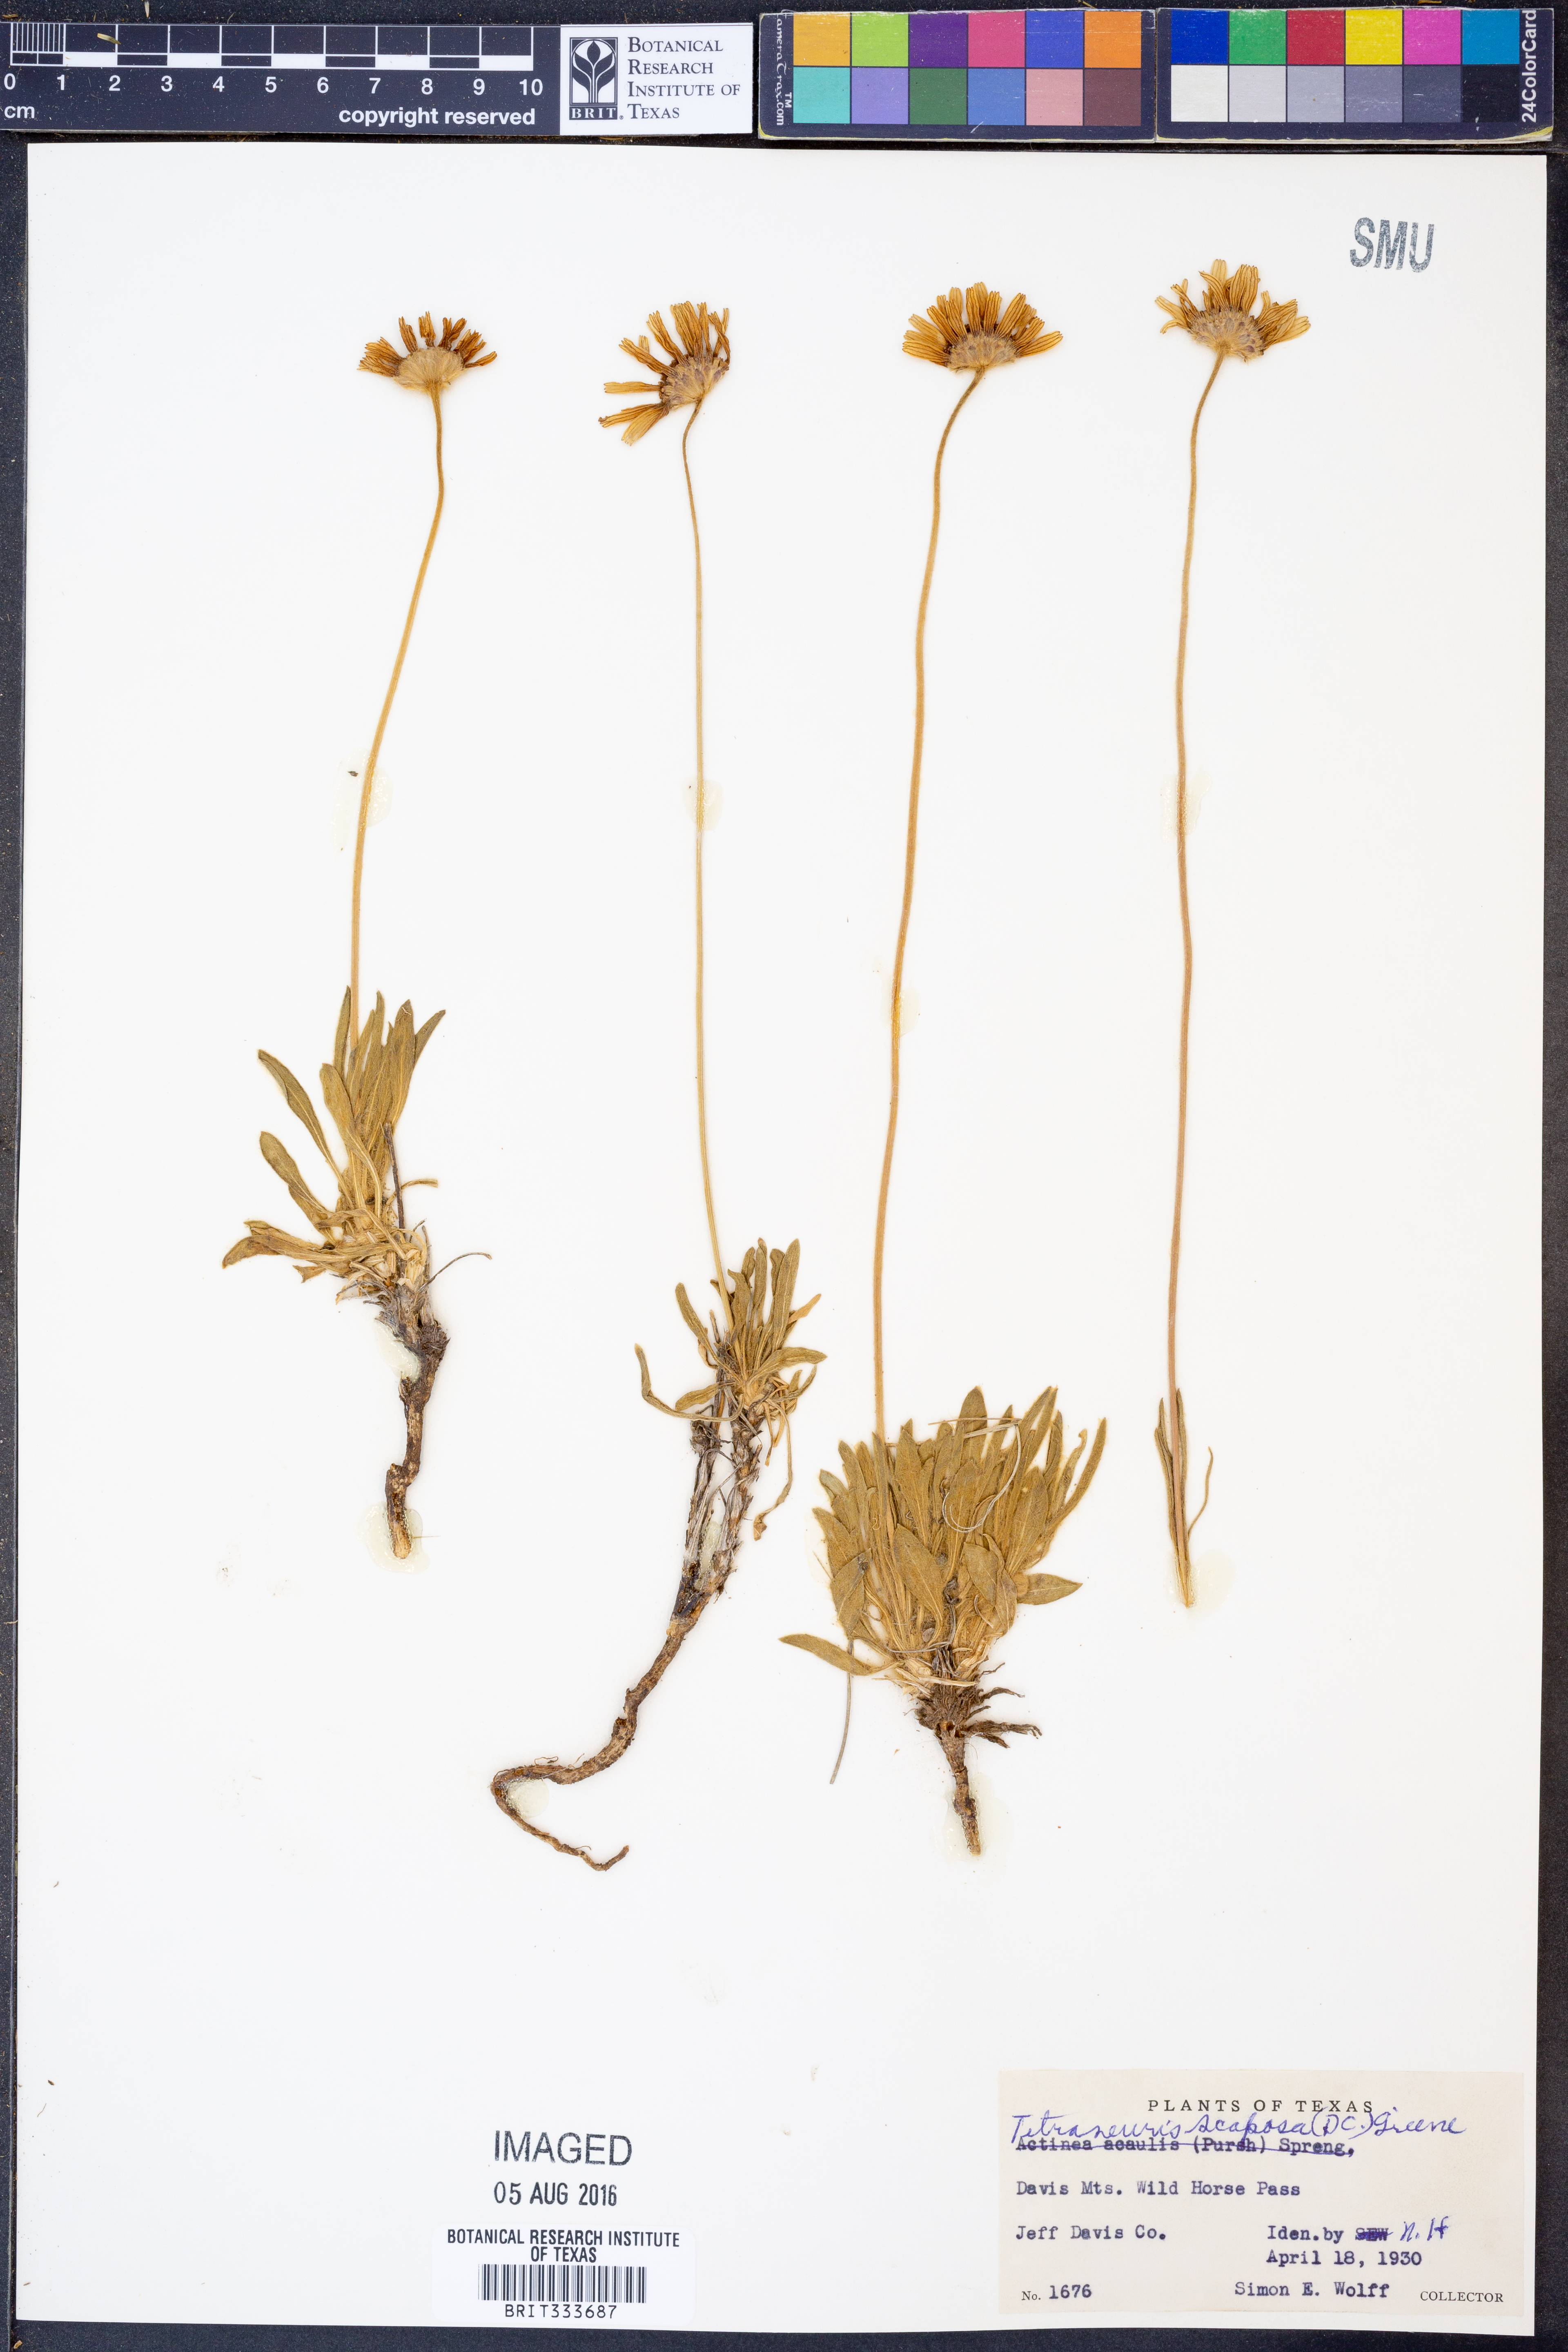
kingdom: Plantae
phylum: Tracheophyta
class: Magnoliopsida
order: Asterales
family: Asteraceae
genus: Tetraneuris
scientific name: Tetraneuris scaposa
